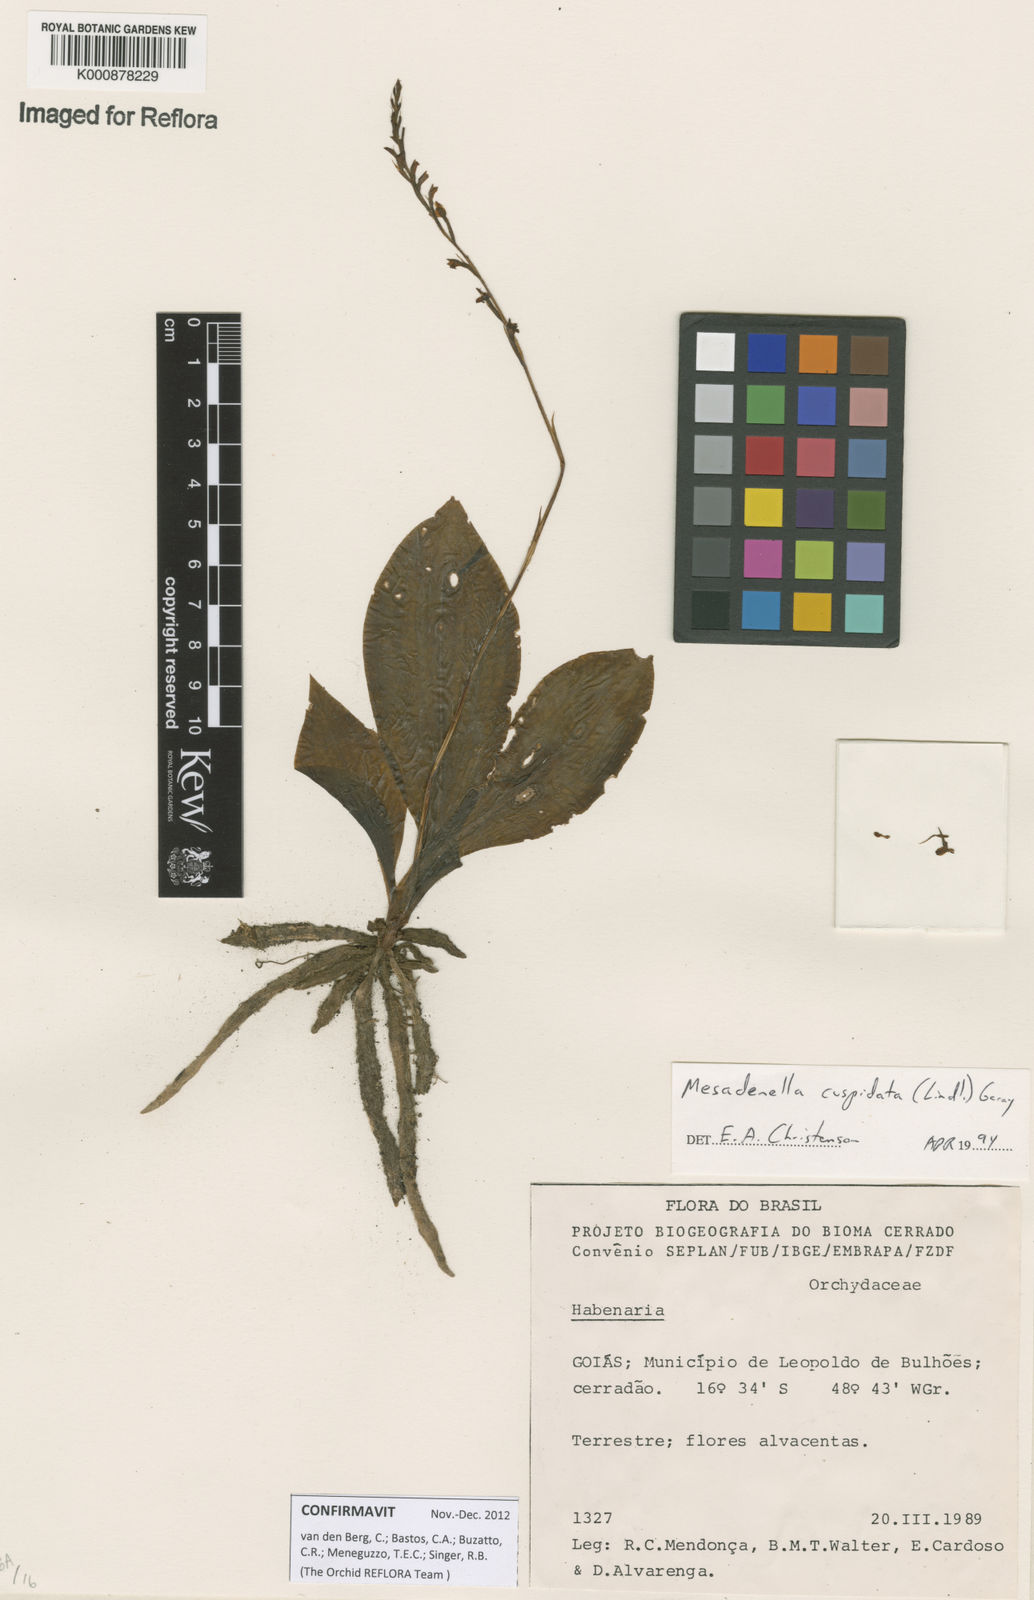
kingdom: Plantae
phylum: Tracheophyta
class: Liliopsida
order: Asparagales
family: Orchidaceae
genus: Mesadenella
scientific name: Mesadenella cuspidata
